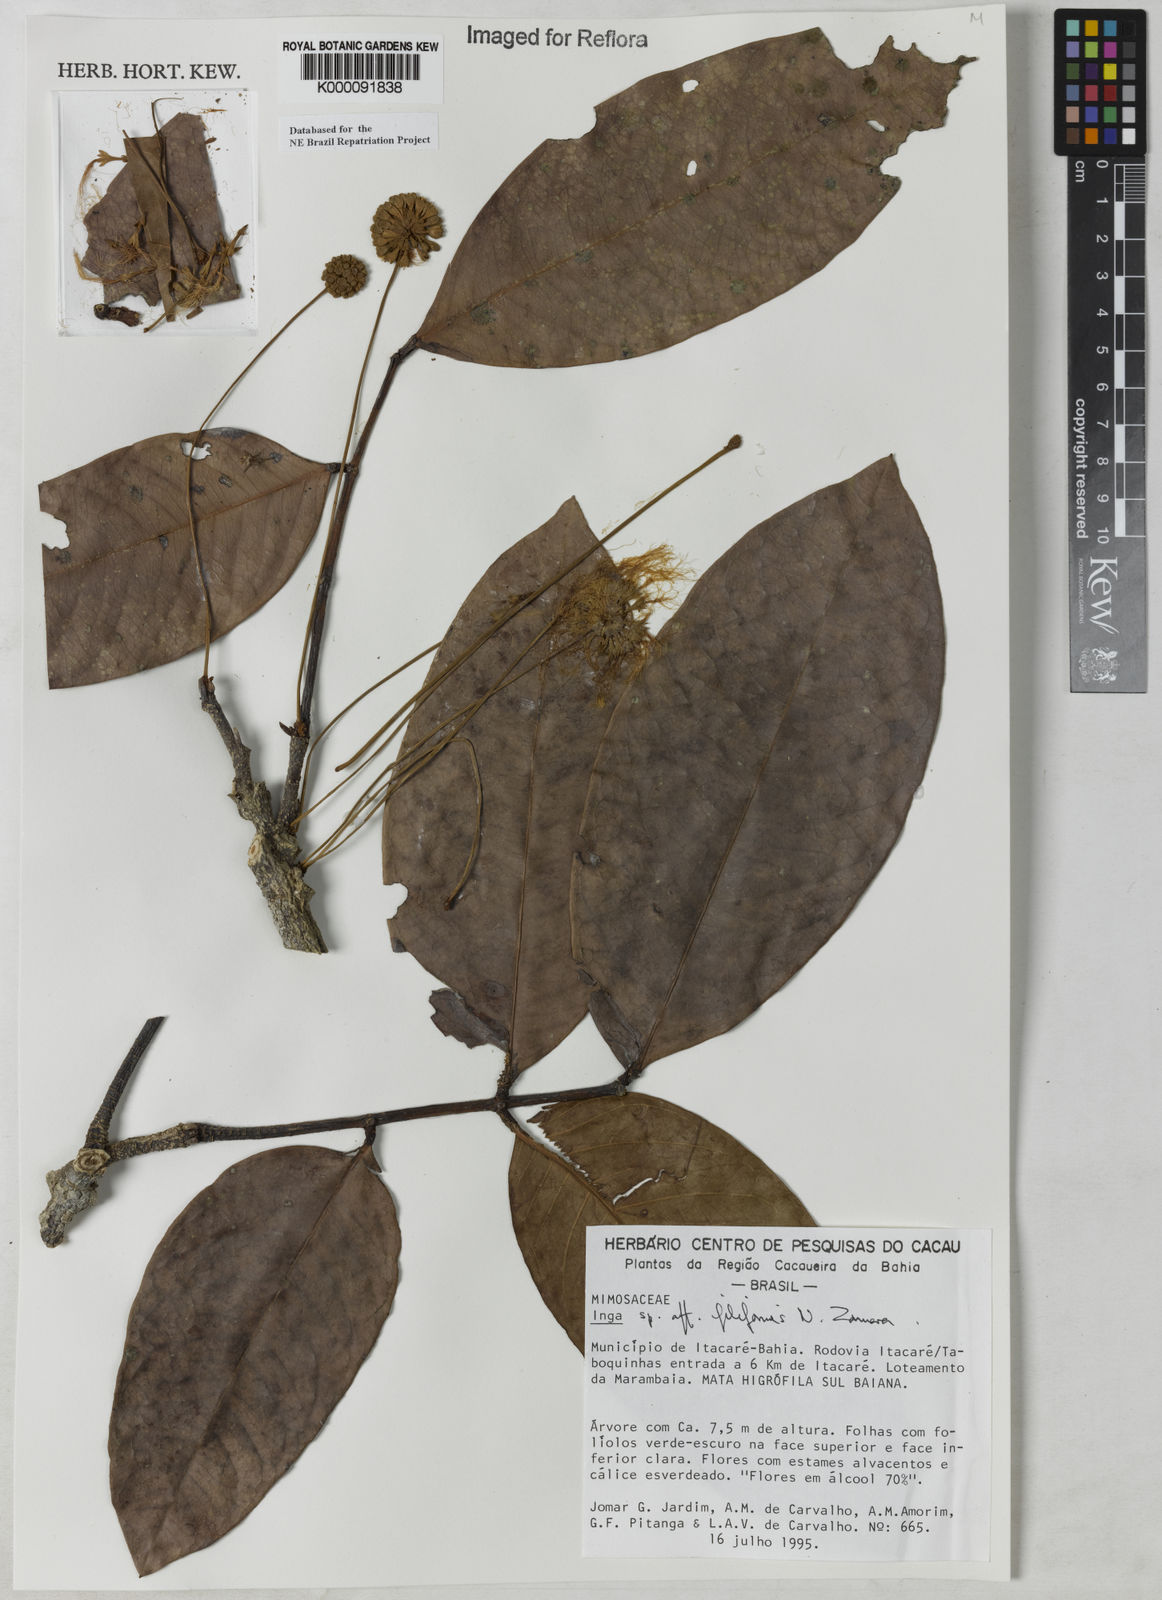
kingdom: Plantae
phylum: Tracheophyta
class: Magnoliopsida
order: Fabales
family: Fabaceae
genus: Inga
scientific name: Inga filiformis
